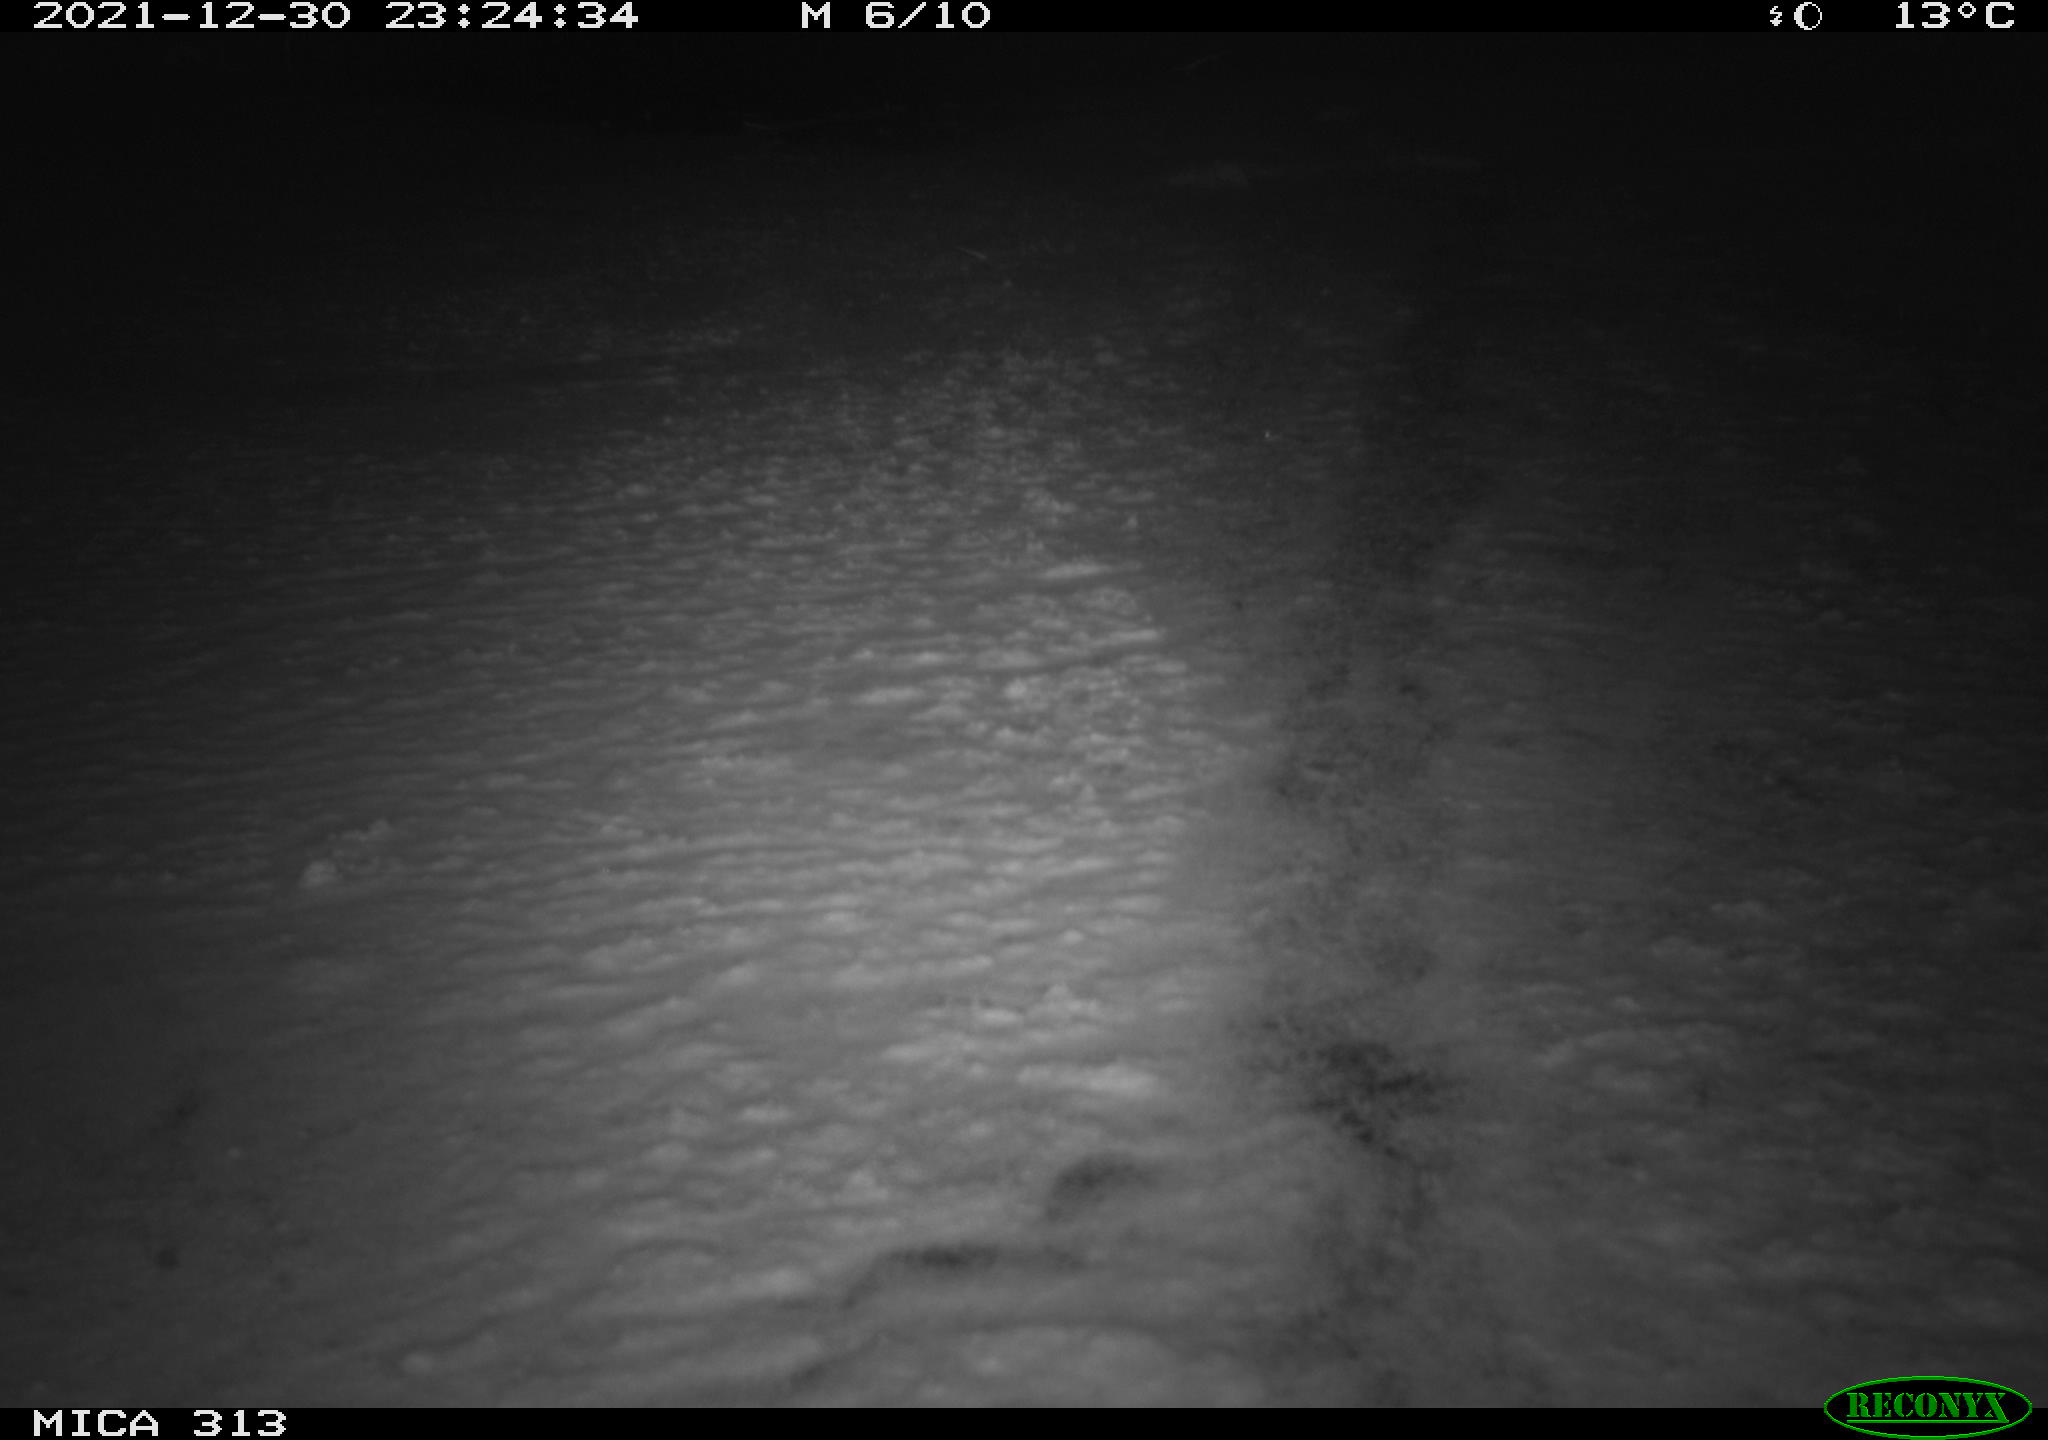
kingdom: Animalia
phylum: Chordata
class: Aves
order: Gruiformes
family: Rallidae
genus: Gallinula
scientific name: Gallinula chloropus
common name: Common moorhen
